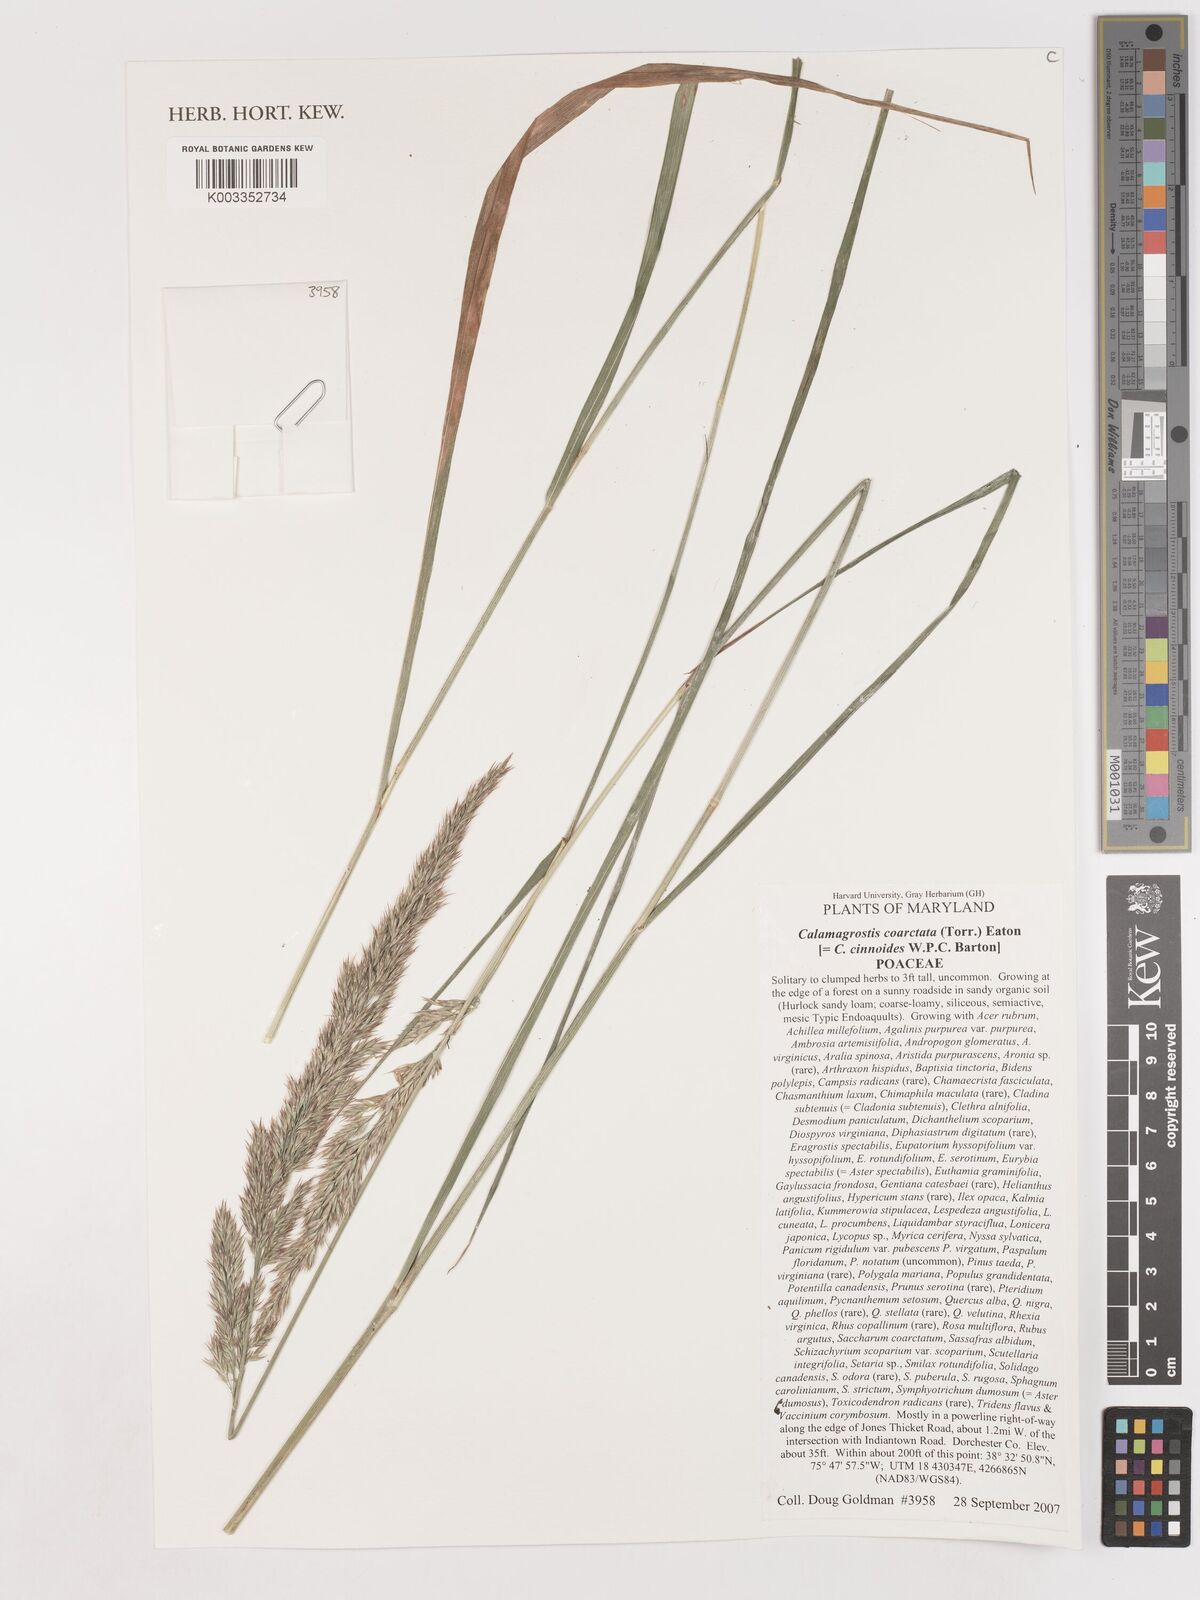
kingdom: Plantae
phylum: Tracheophyta
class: Liliopsida
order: Poales
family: Poaceae
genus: Calamagrostis
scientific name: Calamagrostis canadensis
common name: Canada bluejoint
